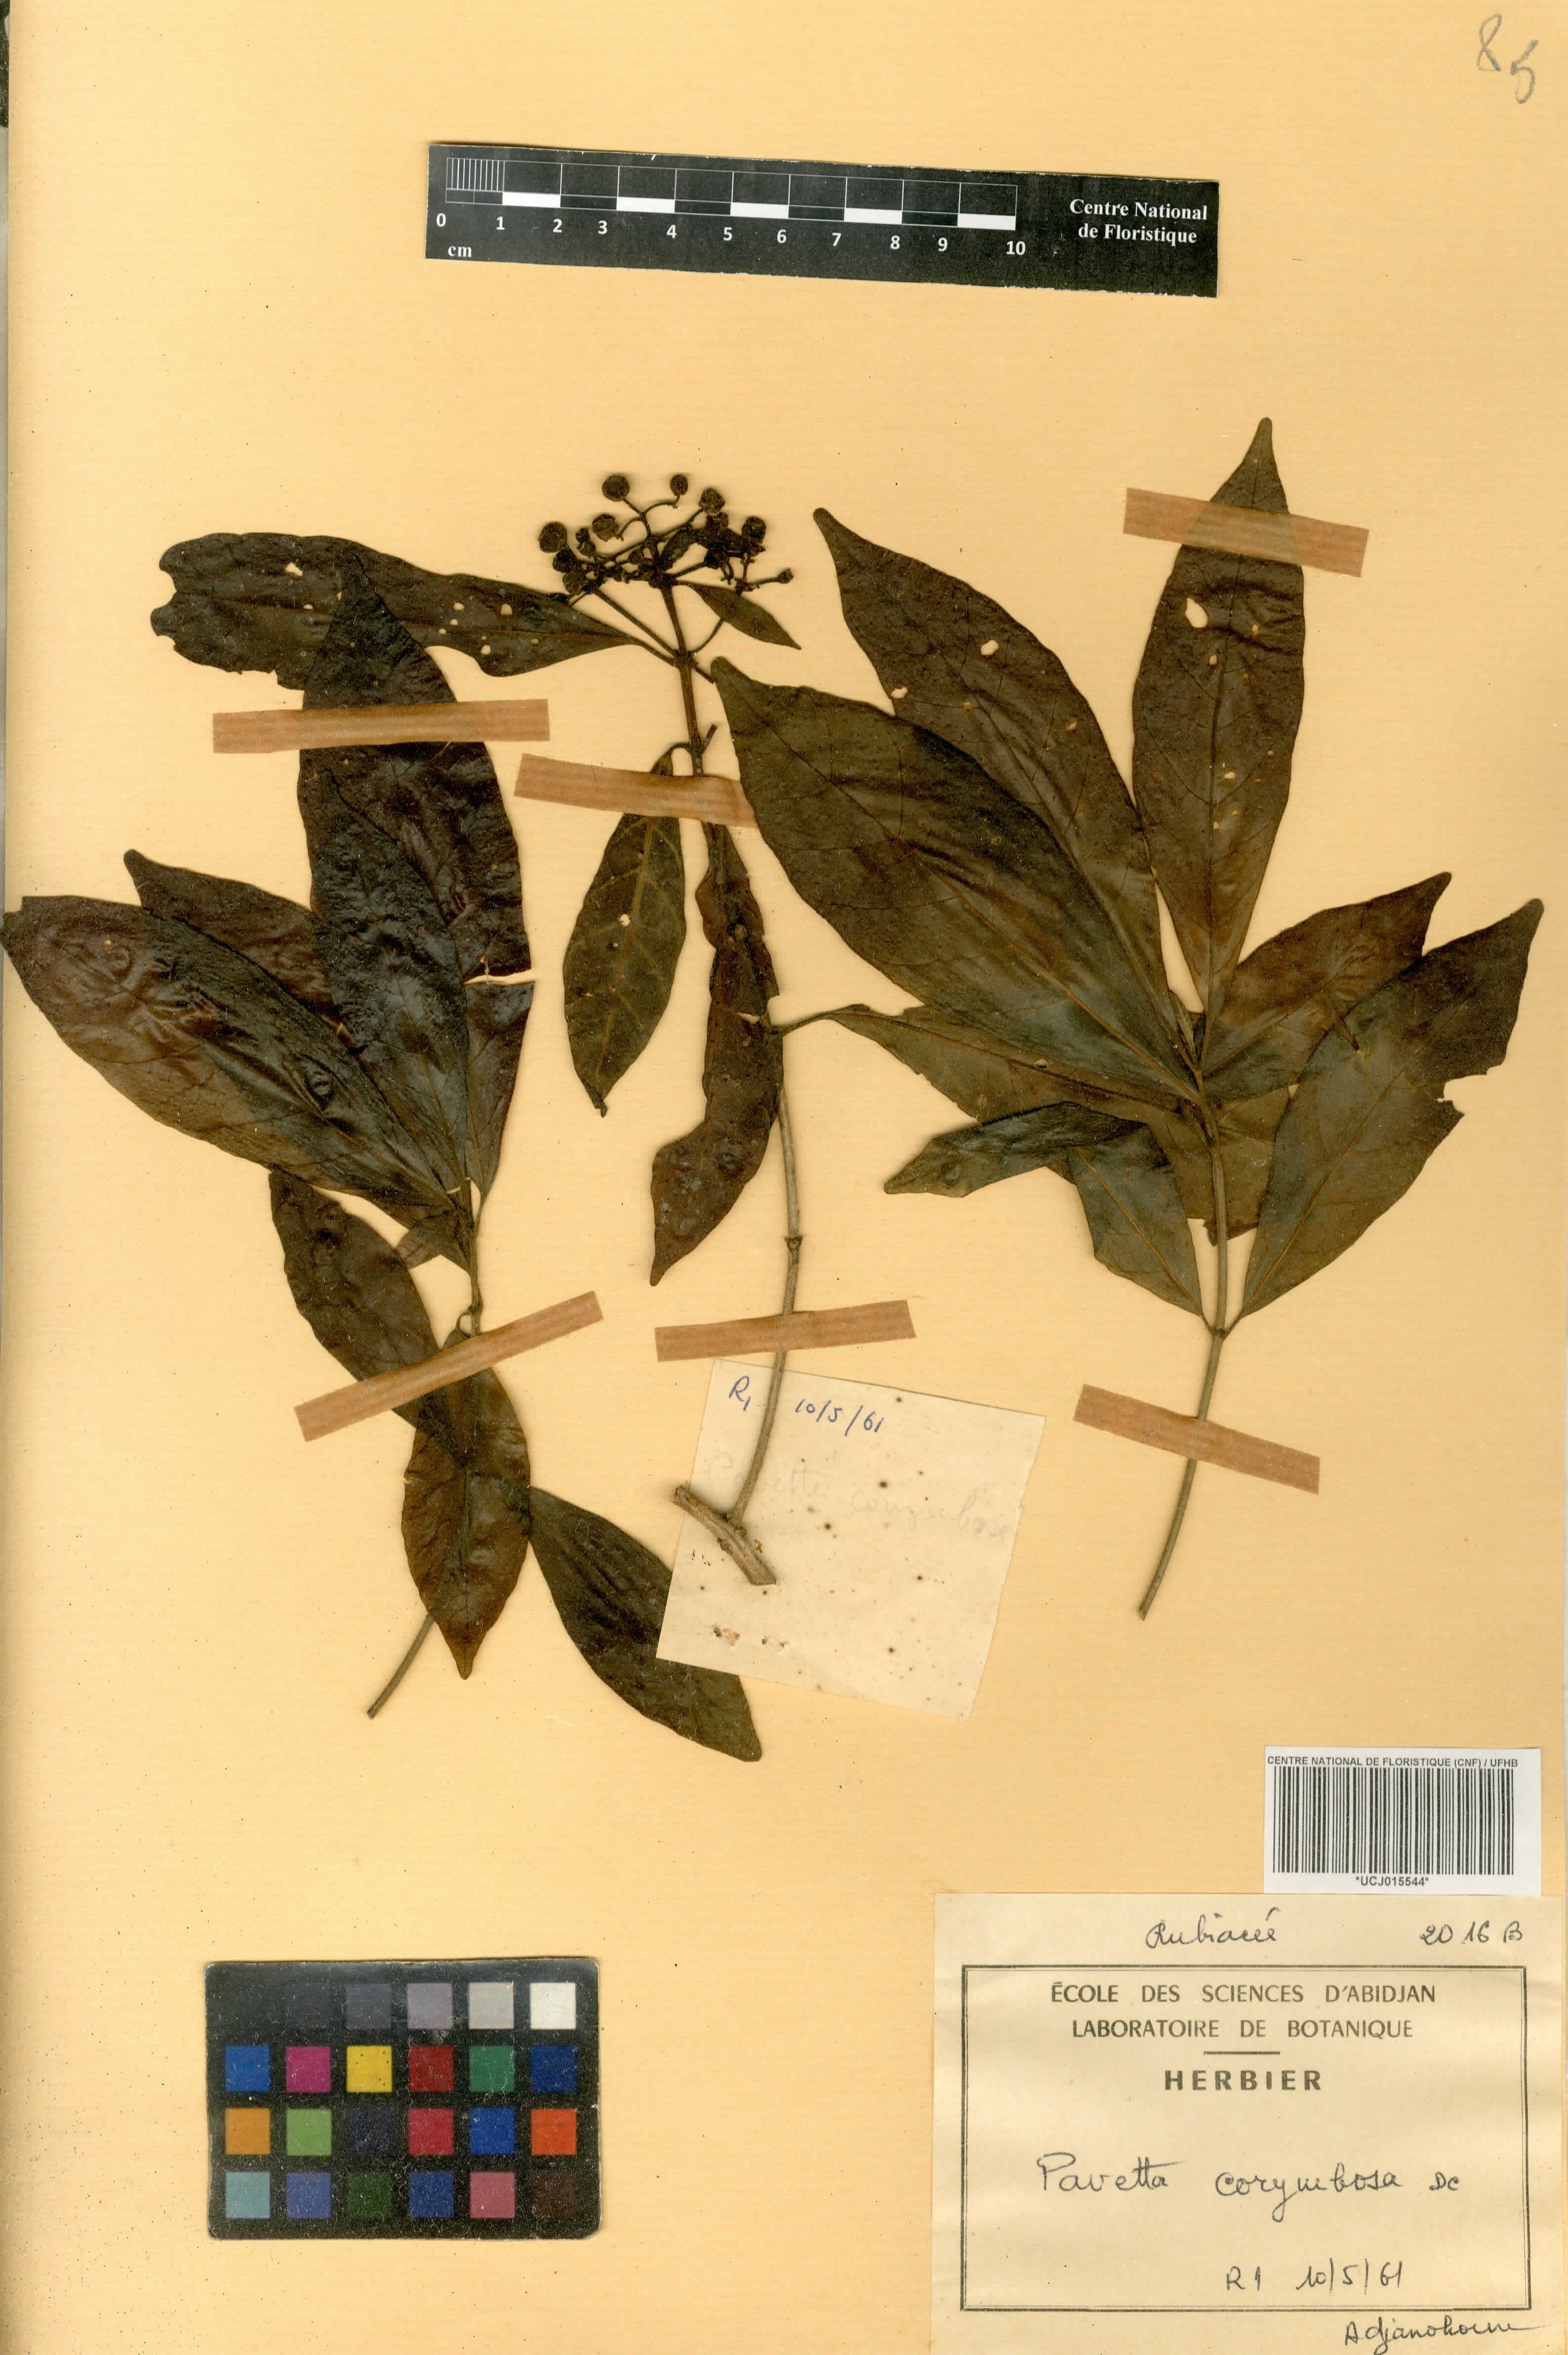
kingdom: Plantae
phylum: Tracheophyta
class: Magnoliopsida
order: Gentianales
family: Rubiaceae
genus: Pavetta
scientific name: Pavetta corymbosa
